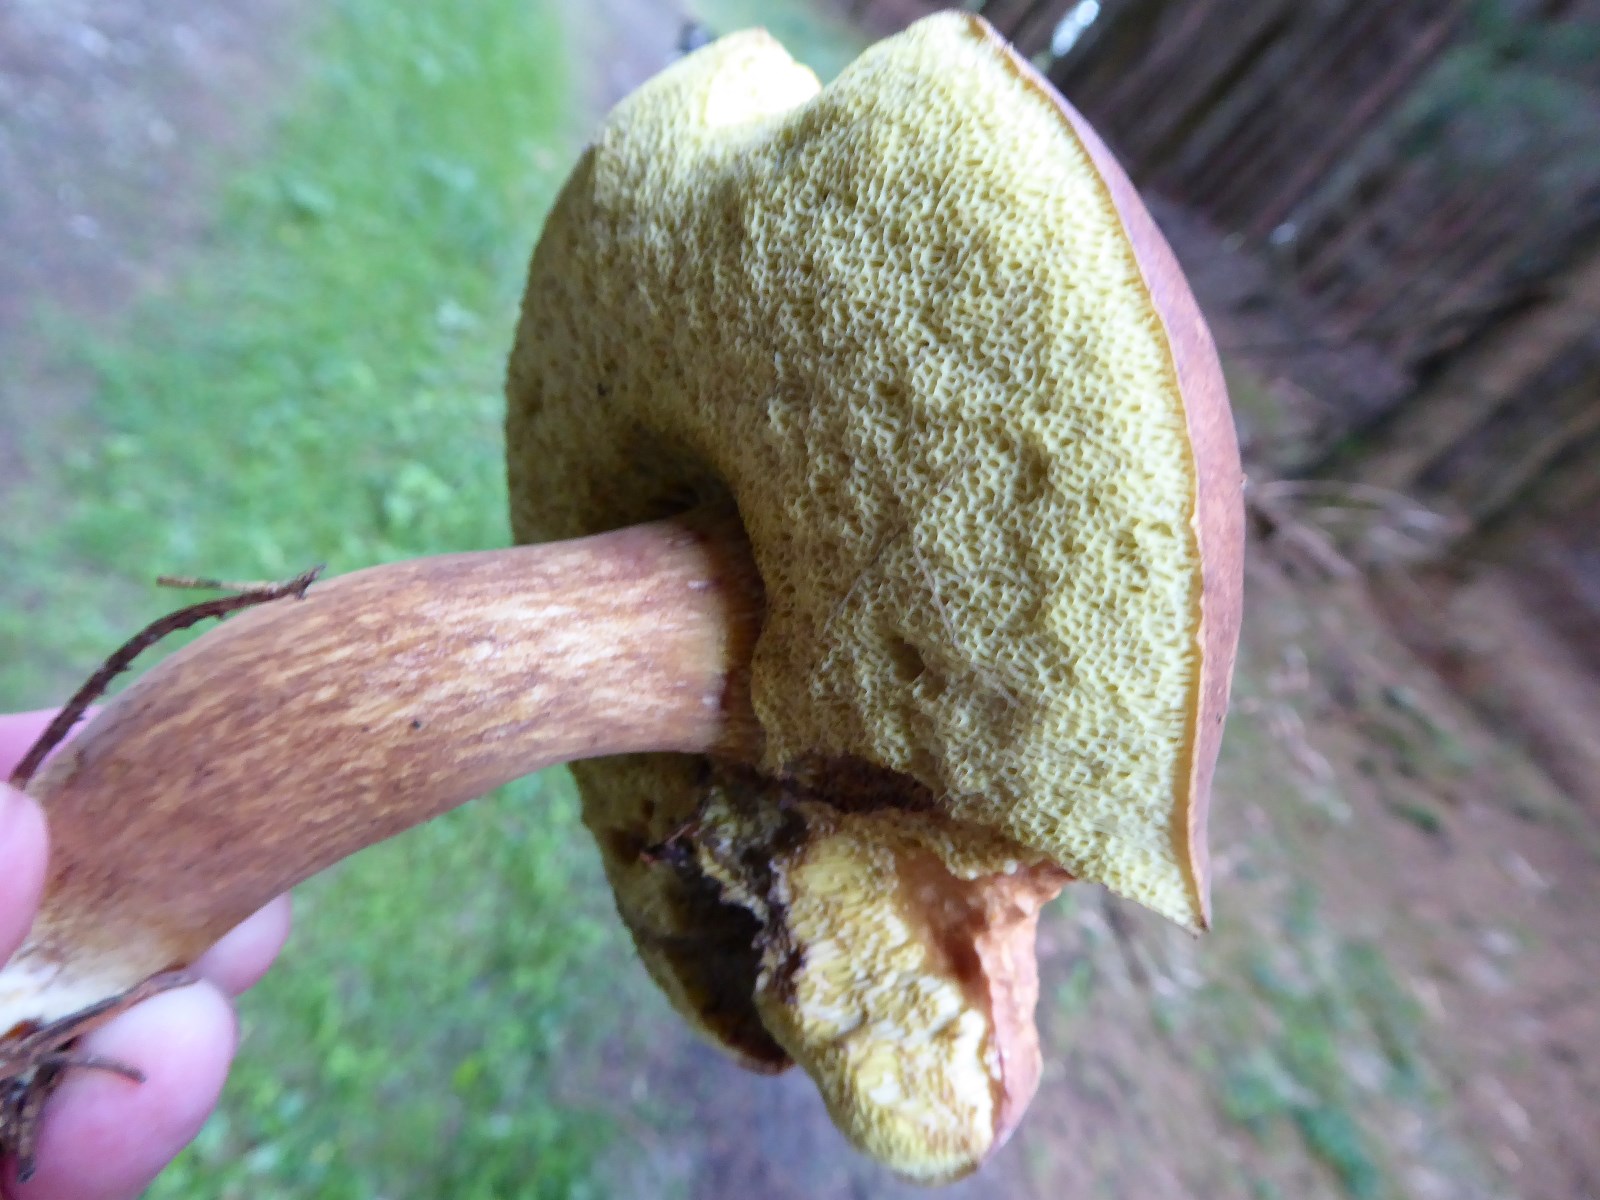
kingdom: Fungi
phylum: Basidiomycota
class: Agaricomycetes
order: Boletales
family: Boletaceae
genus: Imleria
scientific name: Imleria badia
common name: brunstokket rørhat
